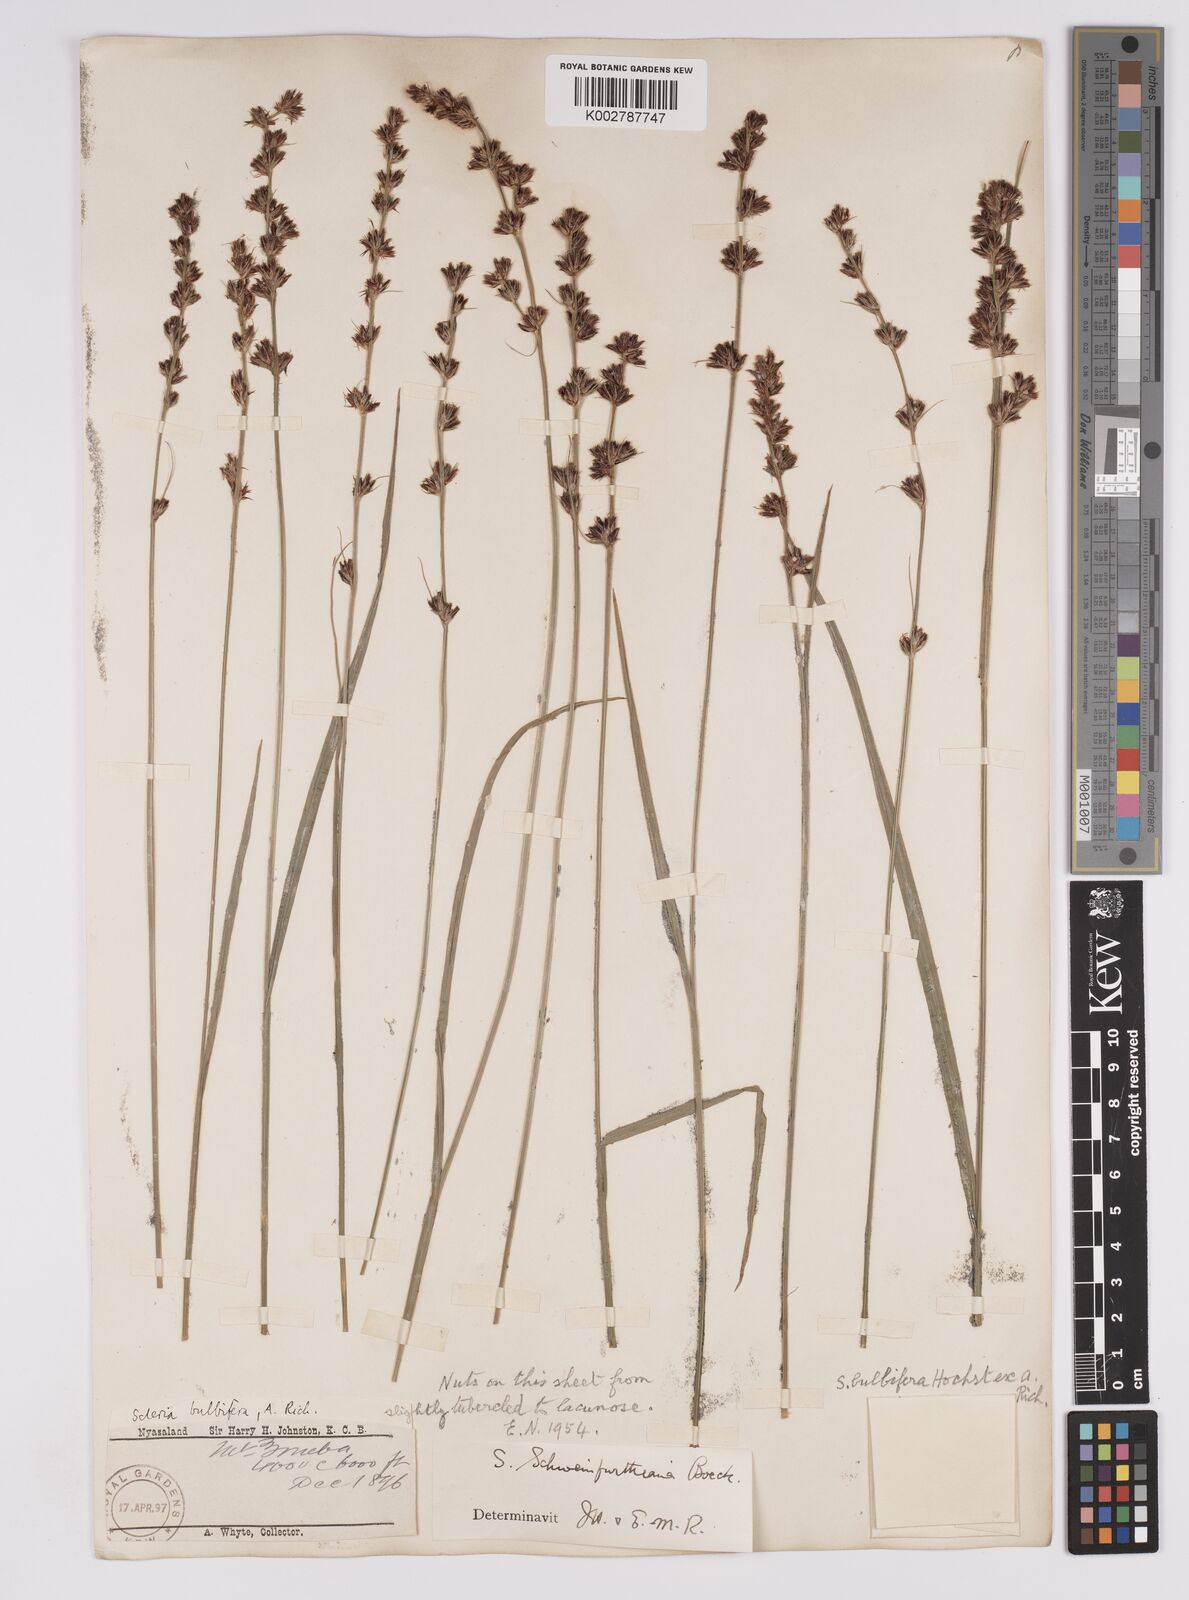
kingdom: Plantae
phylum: Tracheophyta
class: Liliopsida
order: Poales
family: Cyperaceae
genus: Scleria
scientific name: Scleria bulbifera
